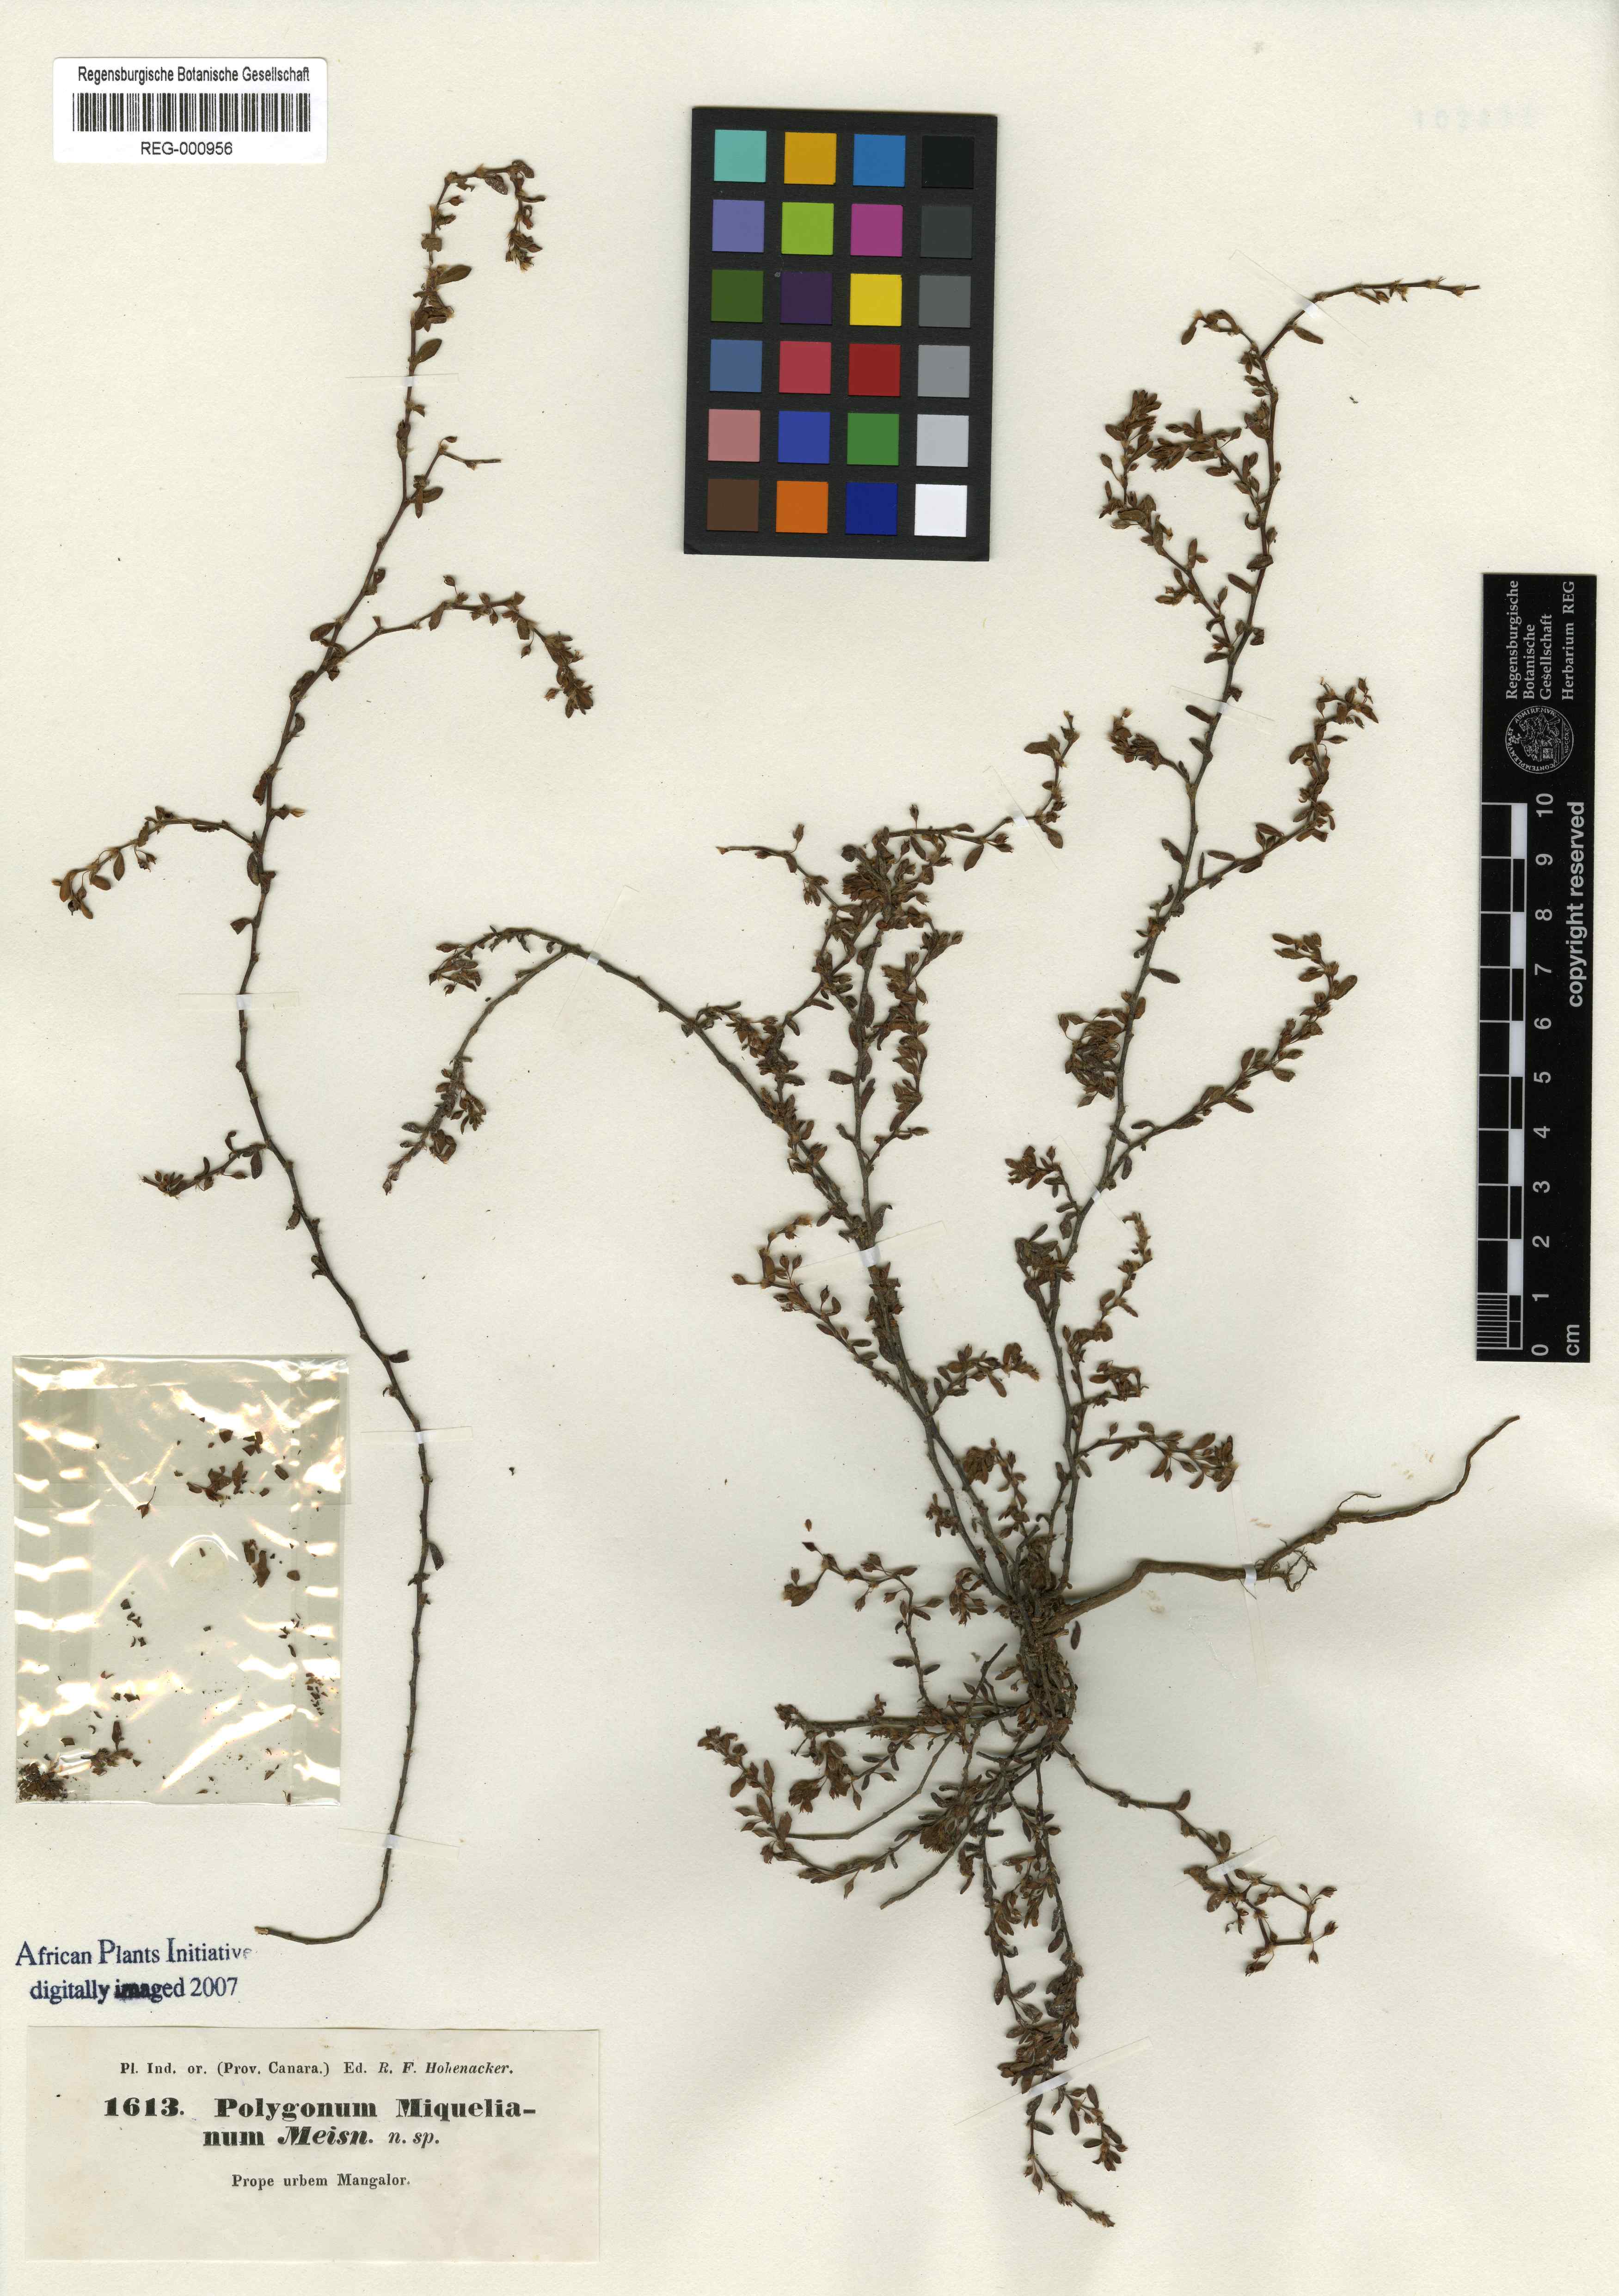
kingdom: Plantae
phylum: Tracheophyta
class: Magnoliopsida
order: Caryophyllales
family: Polygonaceae
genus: Polygonum
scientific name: Polygonum plebeium
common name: Common knotweed
